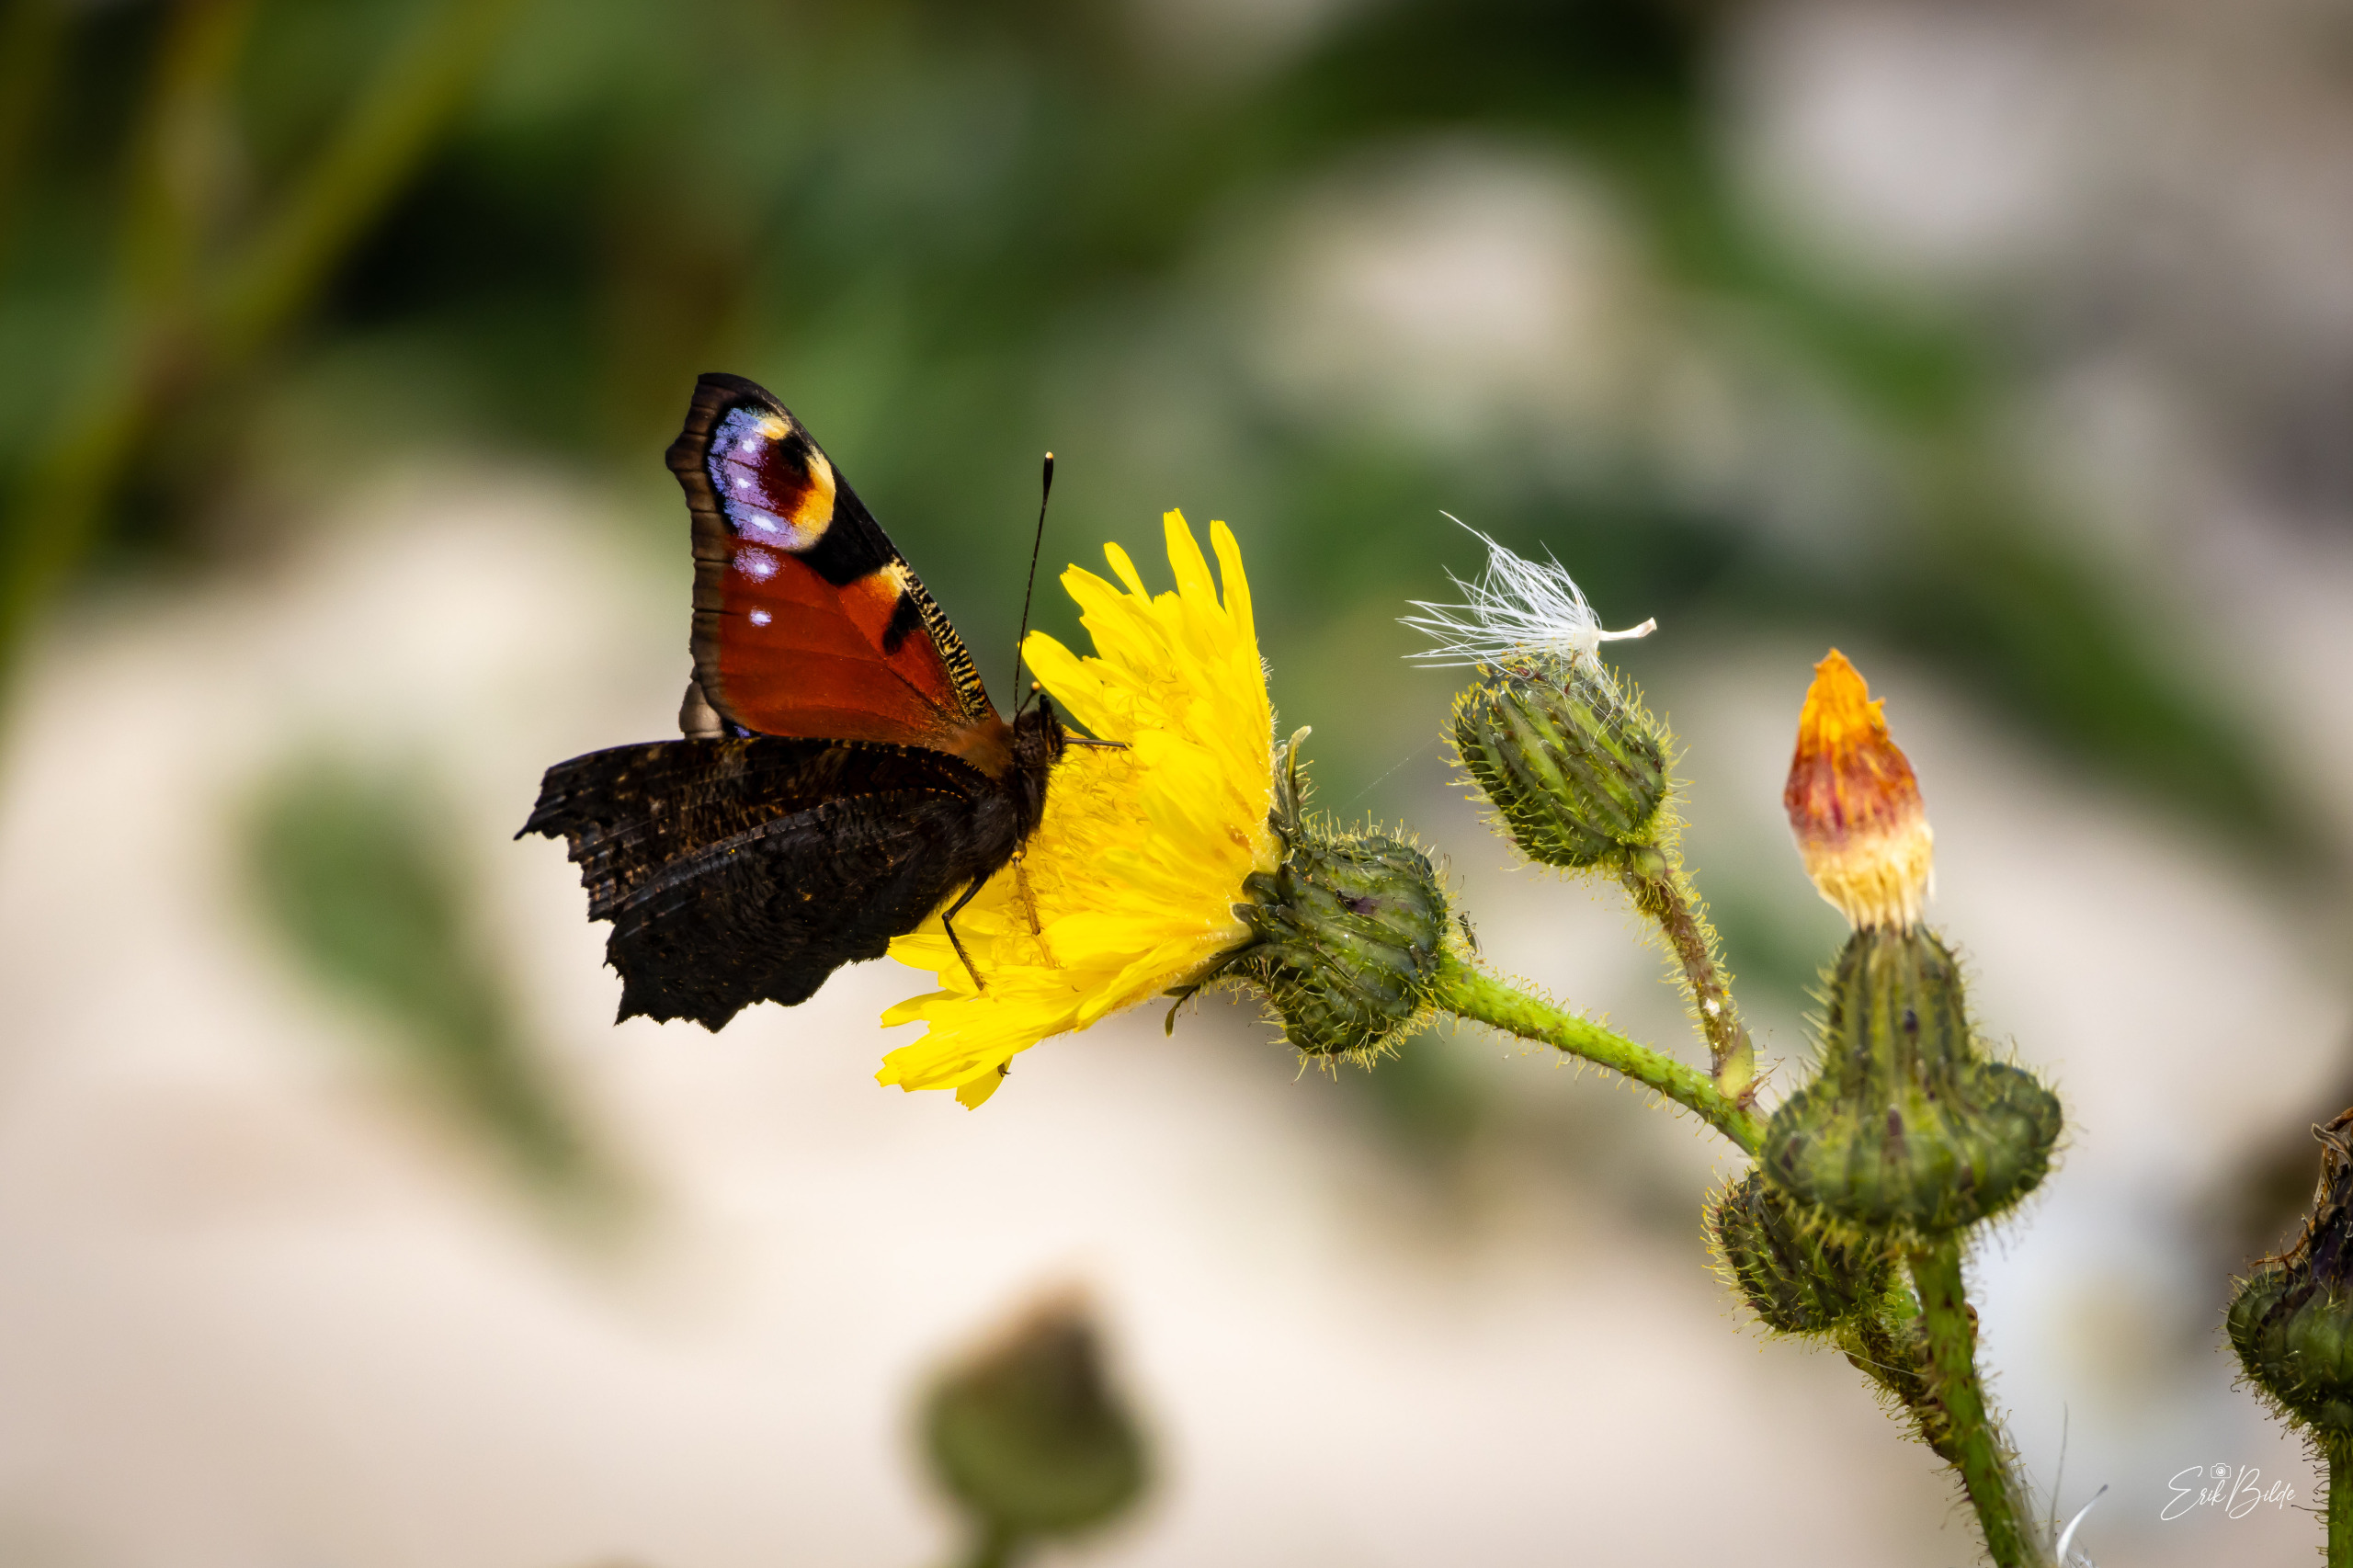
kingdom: Animalia
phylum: Arthropoda
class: Insecta
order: Lepidoptera
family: Nymphalidae
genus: Aglais
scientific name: Aglais io
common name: Dagpåfugleøje
